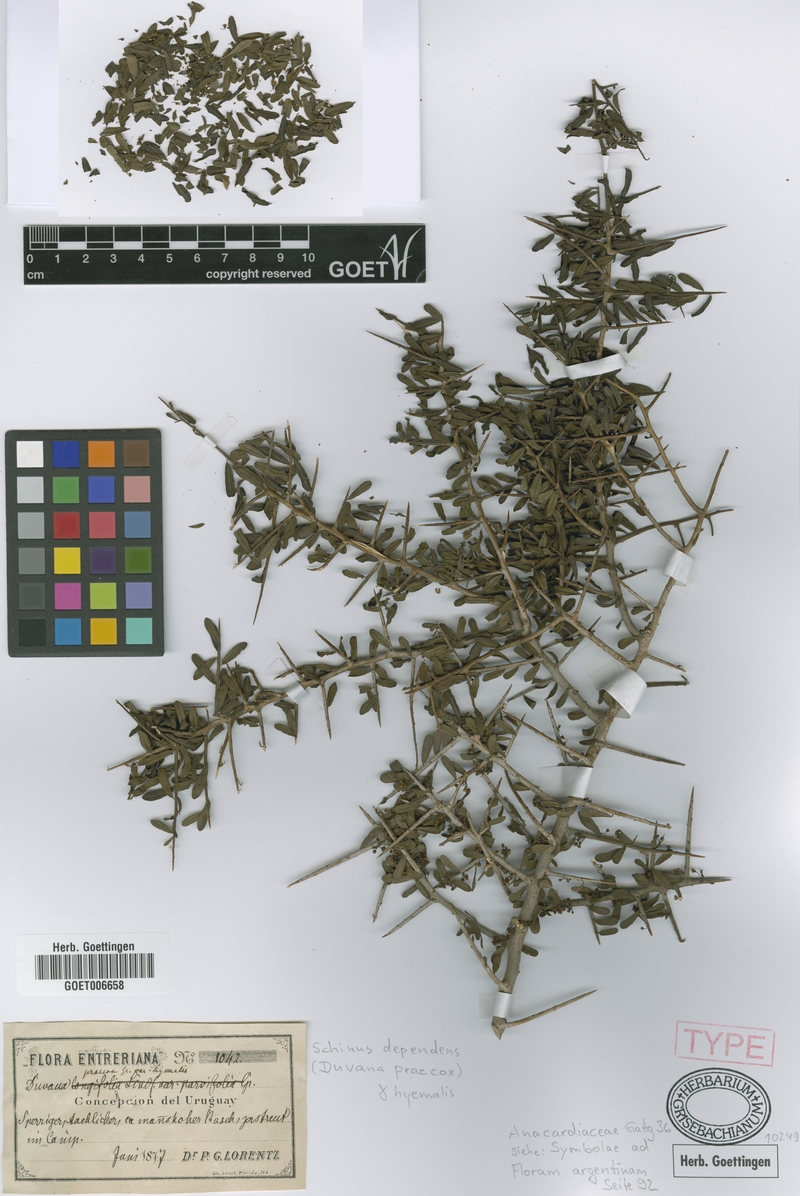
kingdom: Plantae
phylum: Tracheophyta
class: Magnoliopsida
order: Sapindales
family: Anacardiaceae
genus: Schinus
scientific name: Schinus polygama
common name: Hardee peppertree
